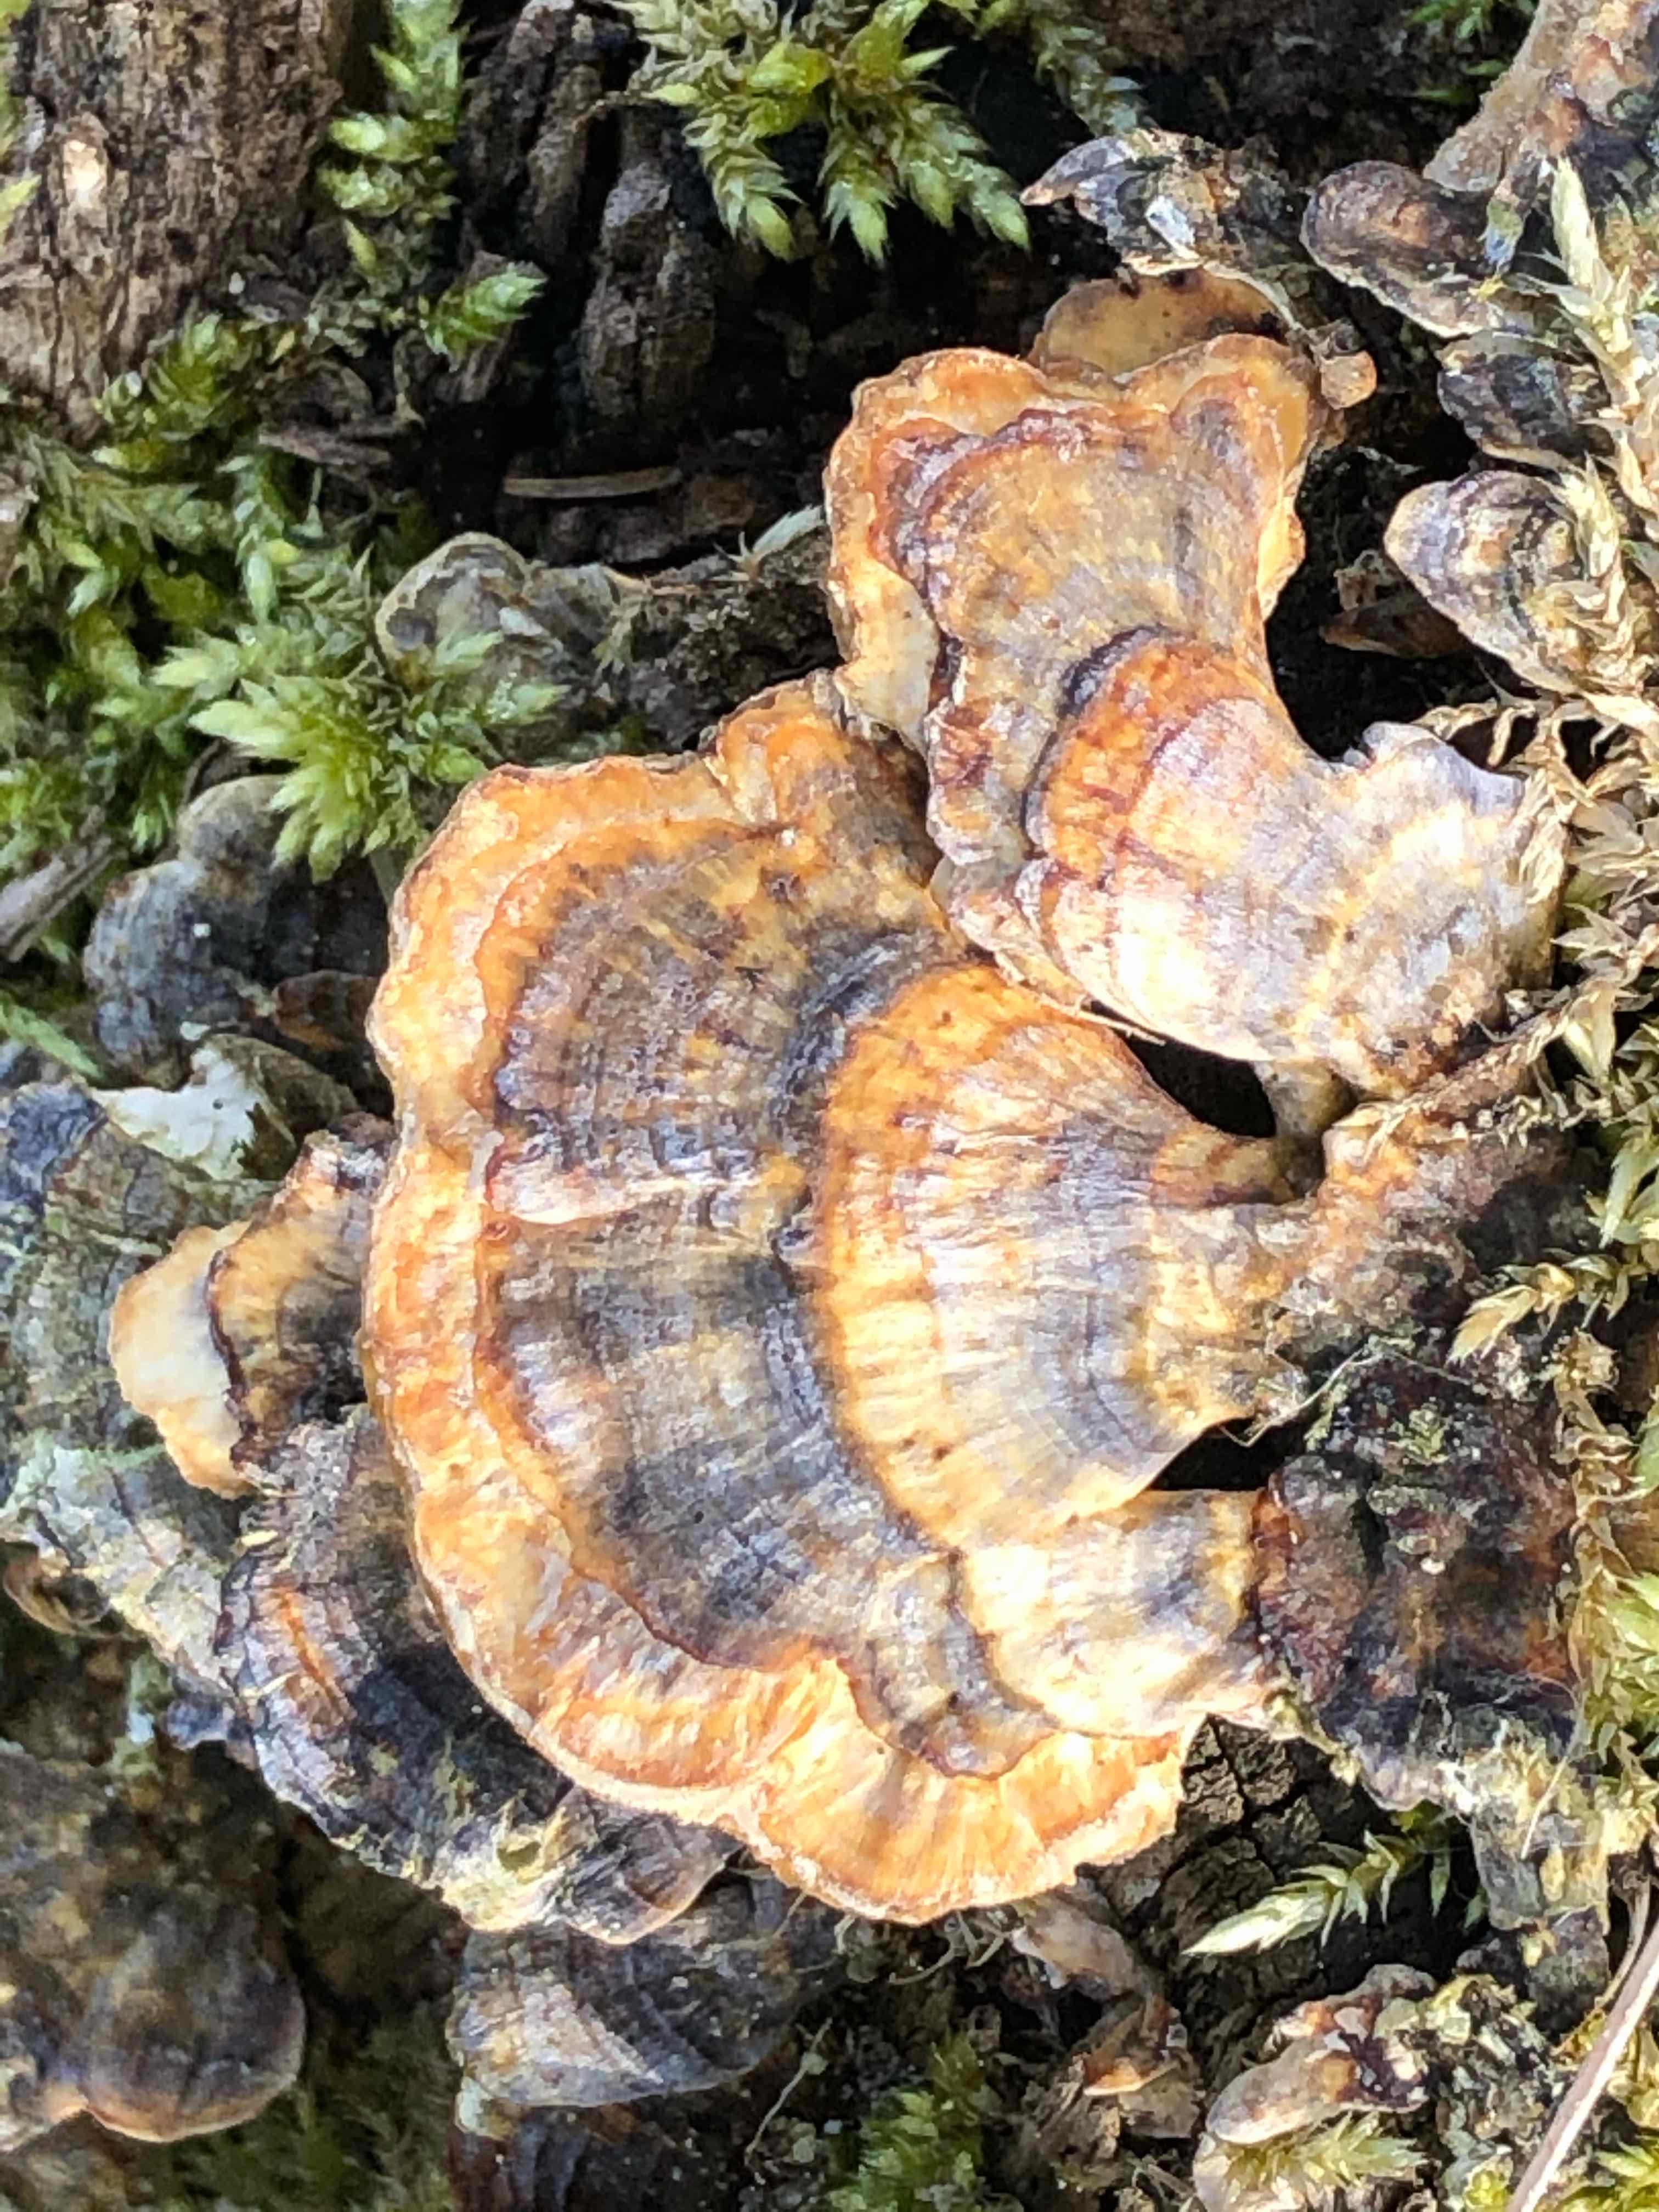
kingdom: Fungi
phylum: Basidiomycota
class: Agaricomycetes
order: Polyporales
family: Polyporaceae
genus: Trametes
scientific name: Trametes versicolor
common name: broget læderporesvamp
